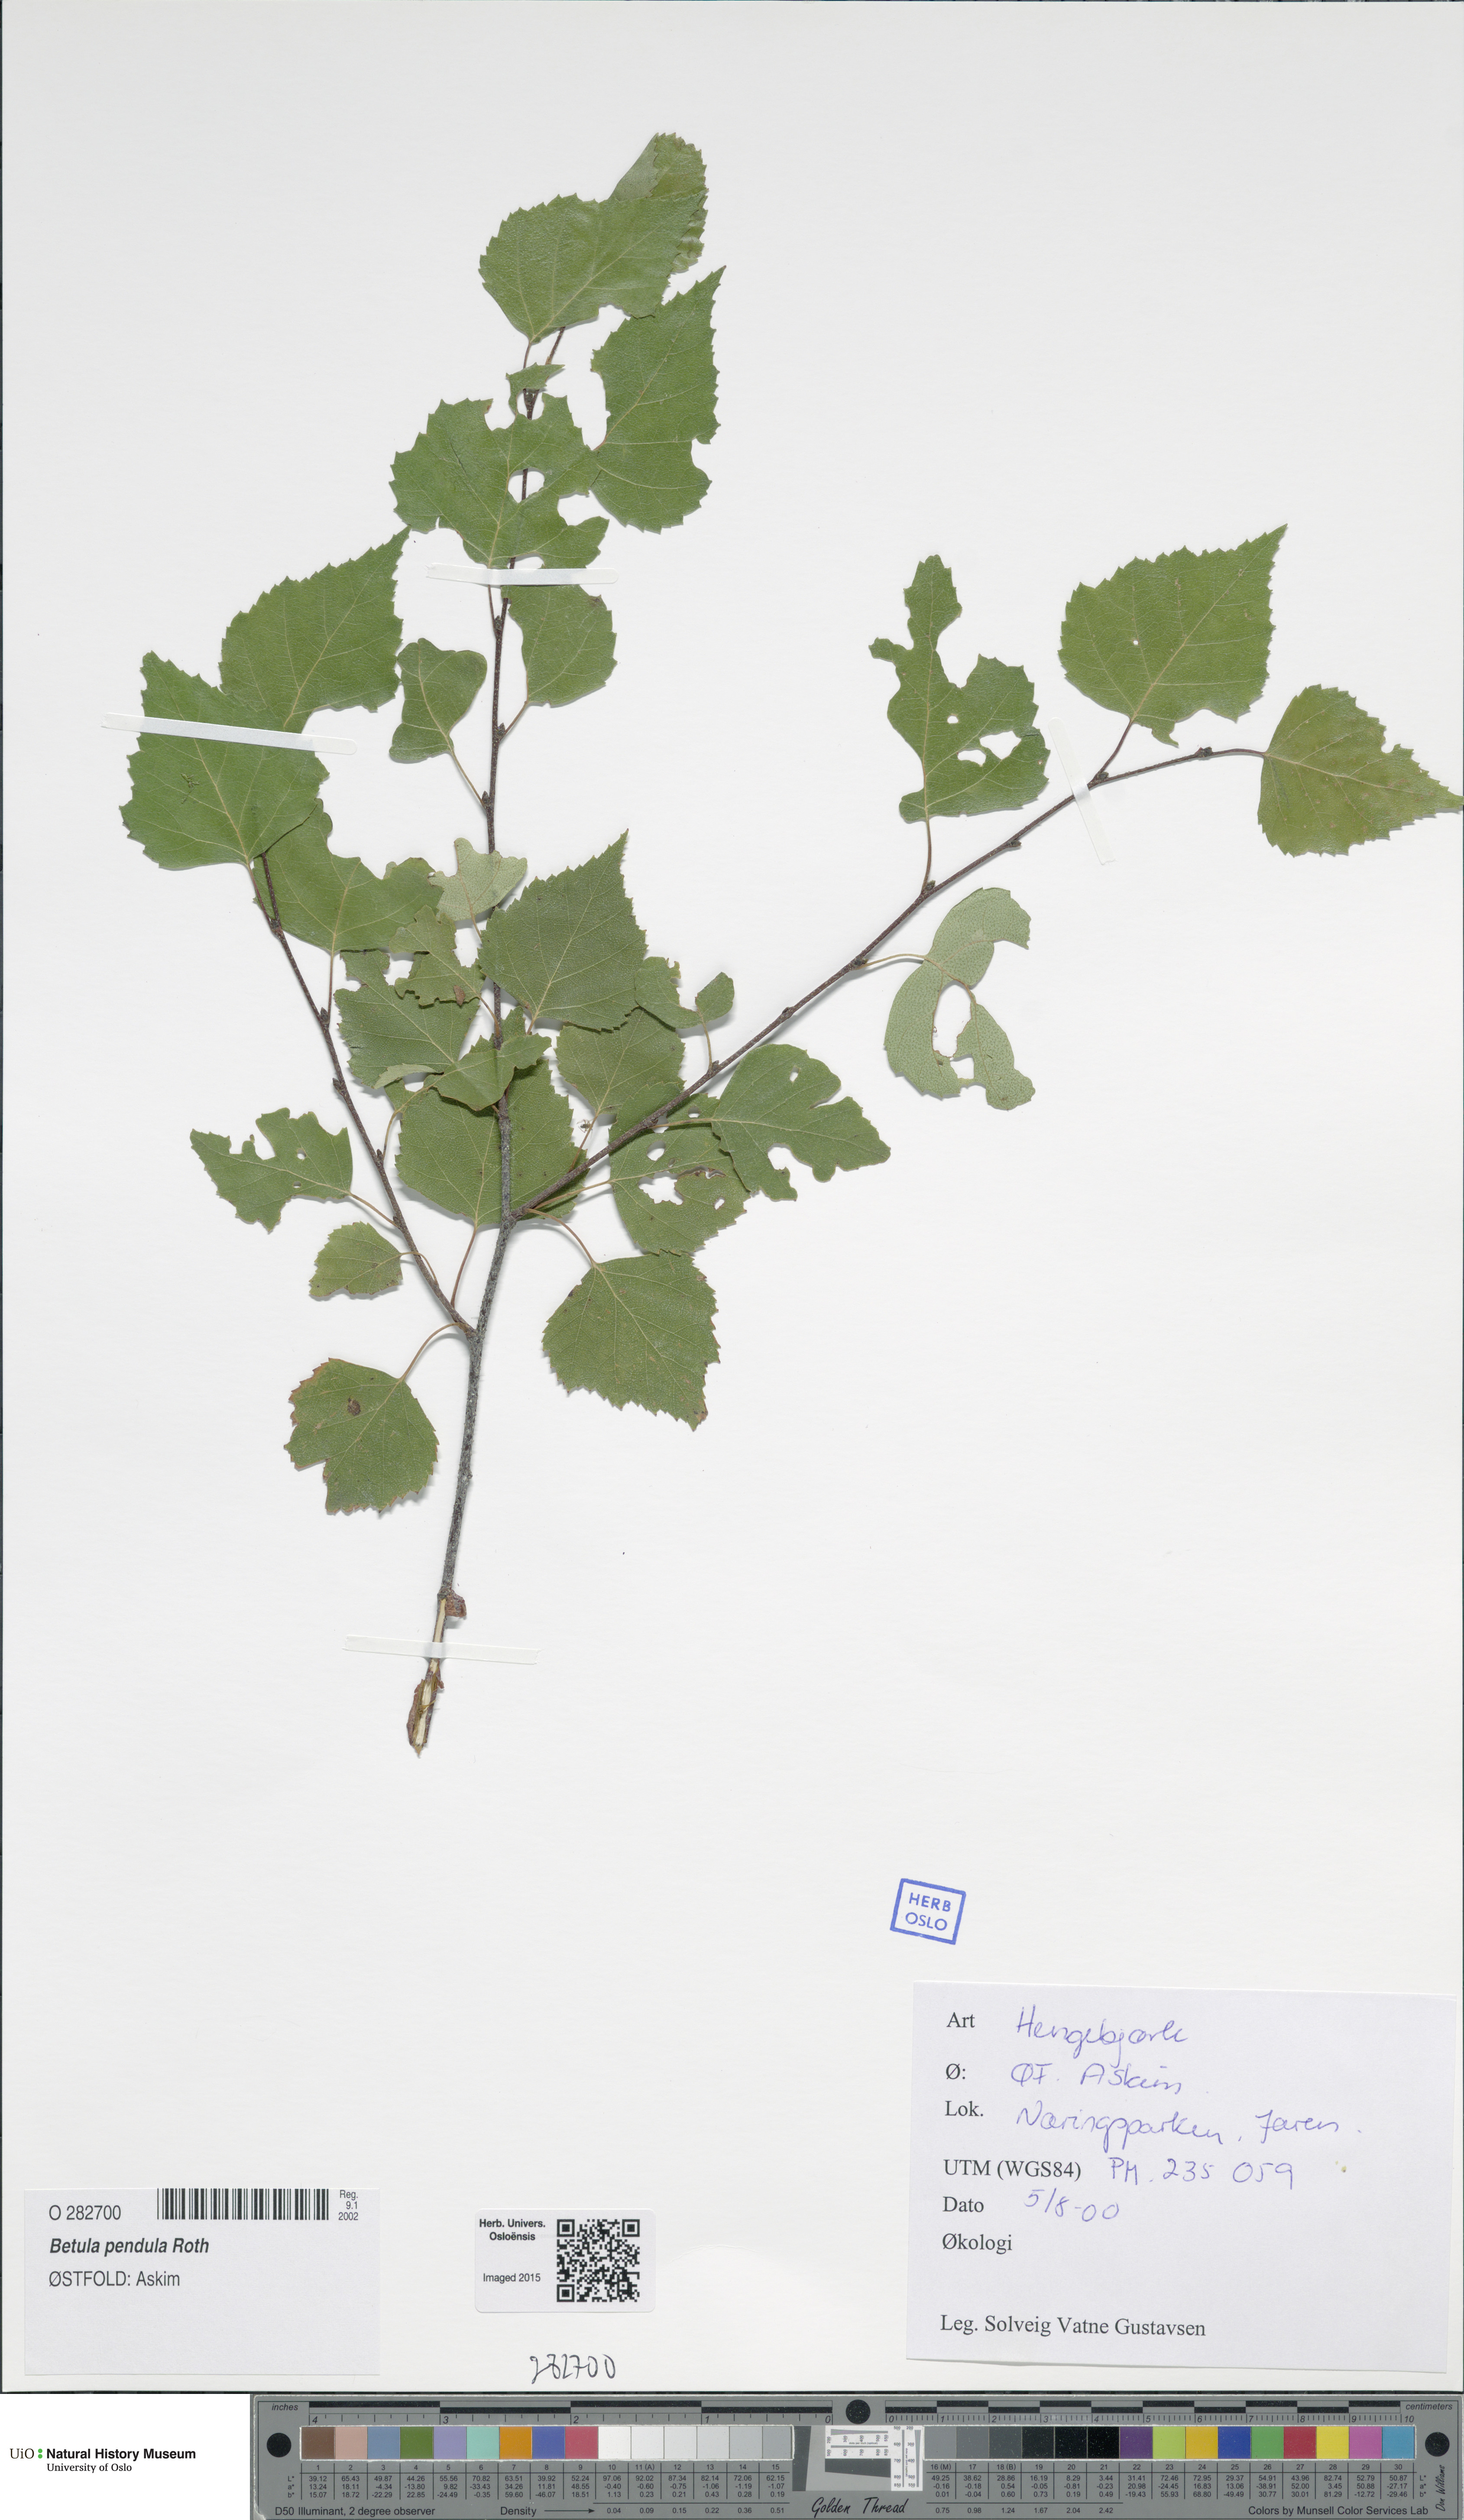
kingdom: Plantae
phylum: Tracheophyta
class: Magnoliopsida
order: Fagales
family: Betulaceae
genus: Betula
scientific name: Betula pendula
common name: Silver birch
